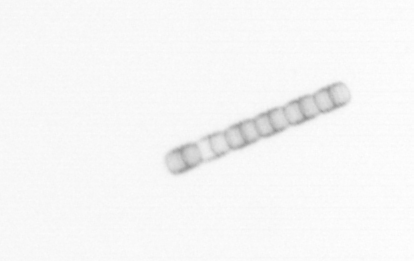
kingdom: Chromista
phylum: Ochrophyta
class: Bacillariophyceae
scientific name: Bacillariophyceae
